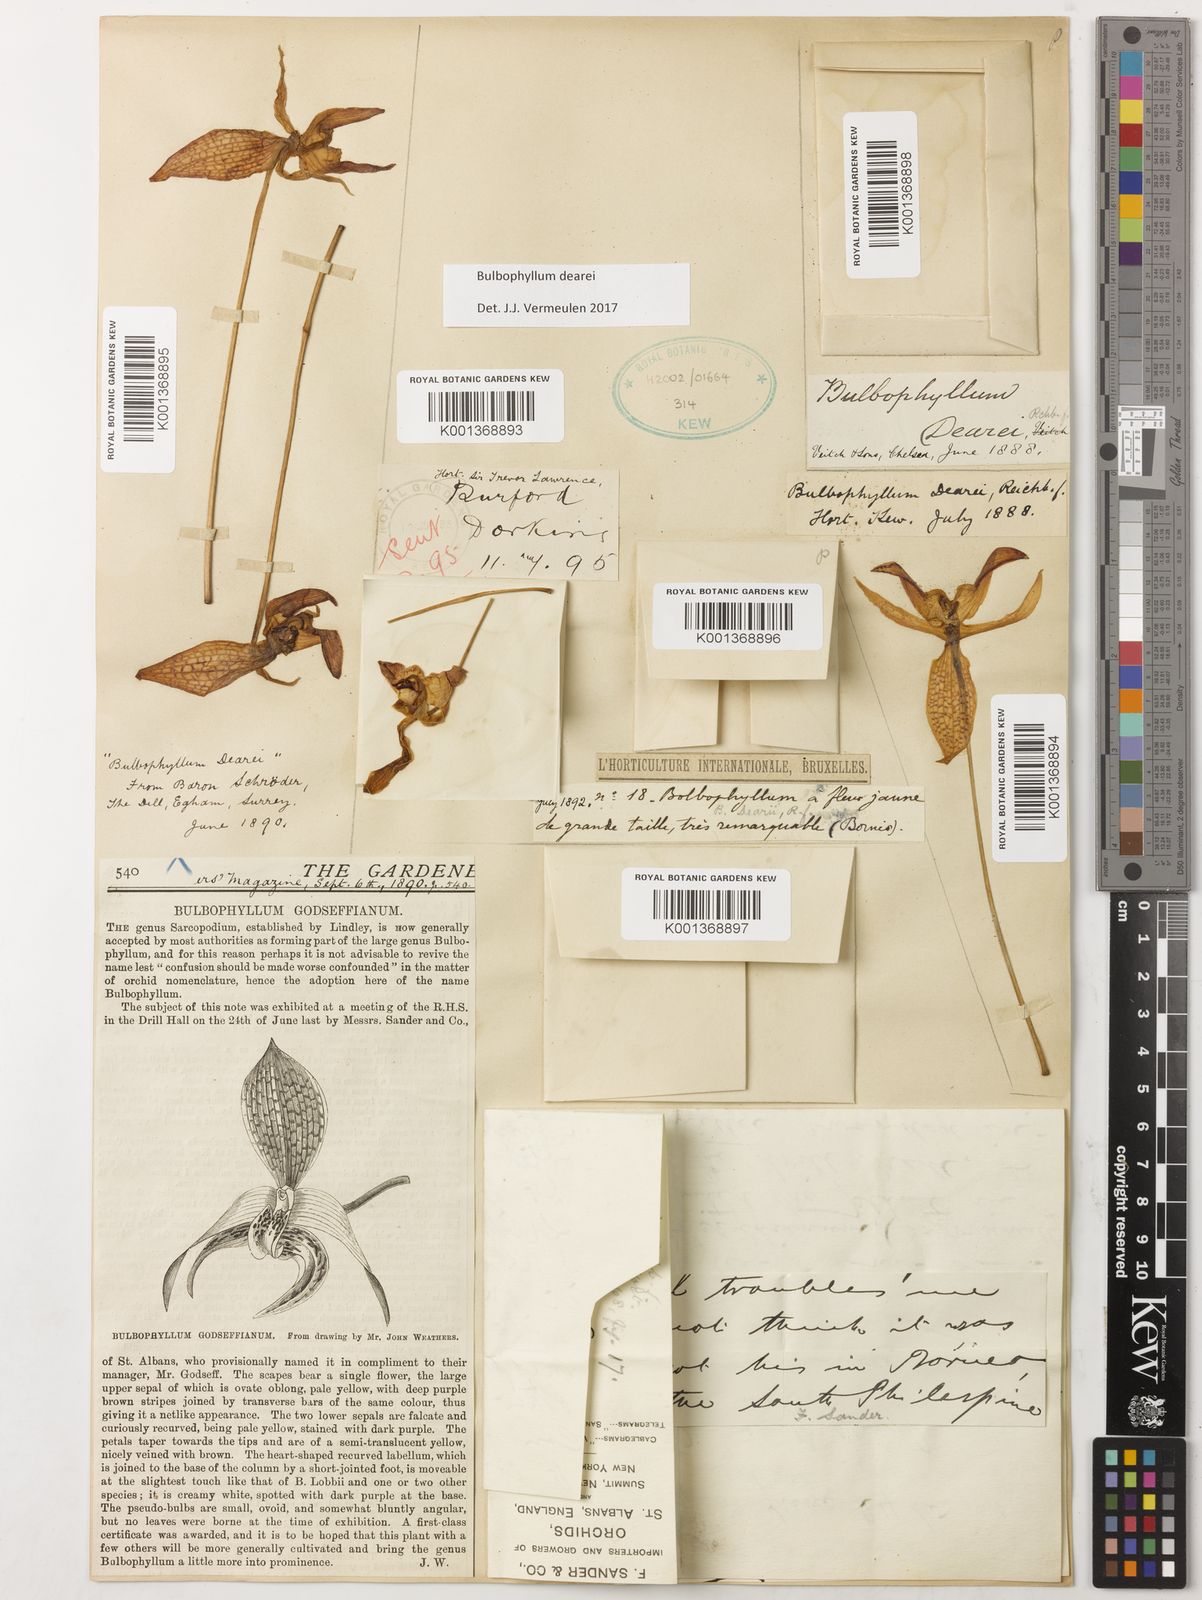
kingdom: Plantae
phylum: Tracheophyta
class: Liliopsida
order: Asparagales
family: Orchidaceae
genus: Bulbophyllum
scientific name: Bulbophyllum dearei
